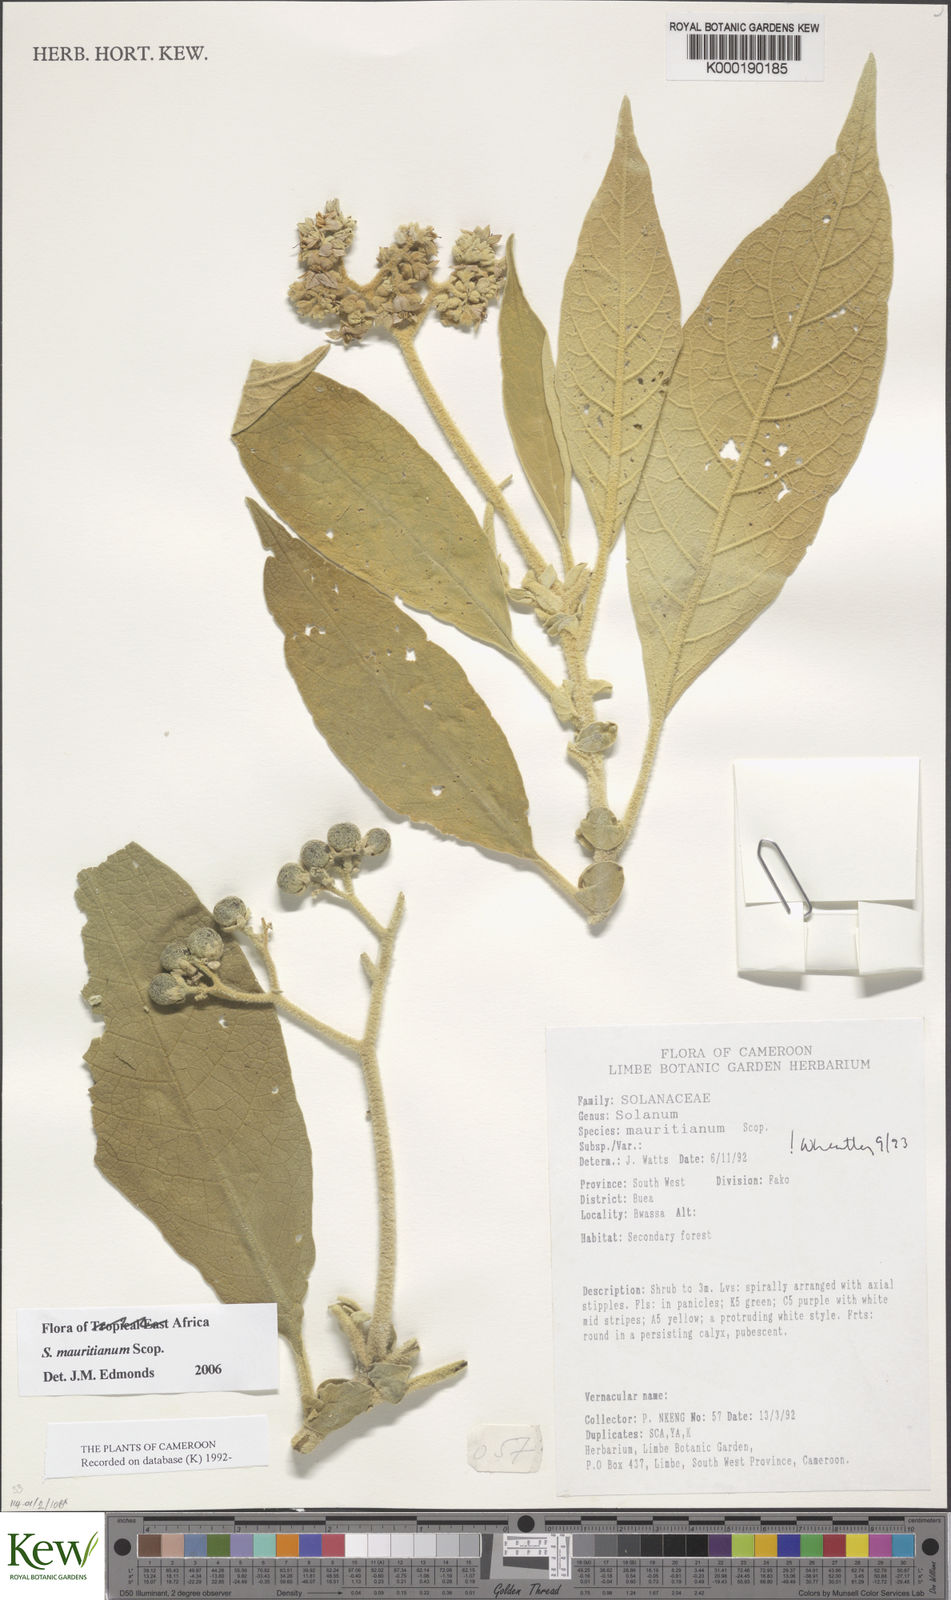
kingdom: Plantae
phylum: Tracheophyta
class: Magnoliopsida
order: Solanales
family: Solanaceae
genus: Solanum
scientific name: Solanum mauritianum
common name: Earleaf nightshade
